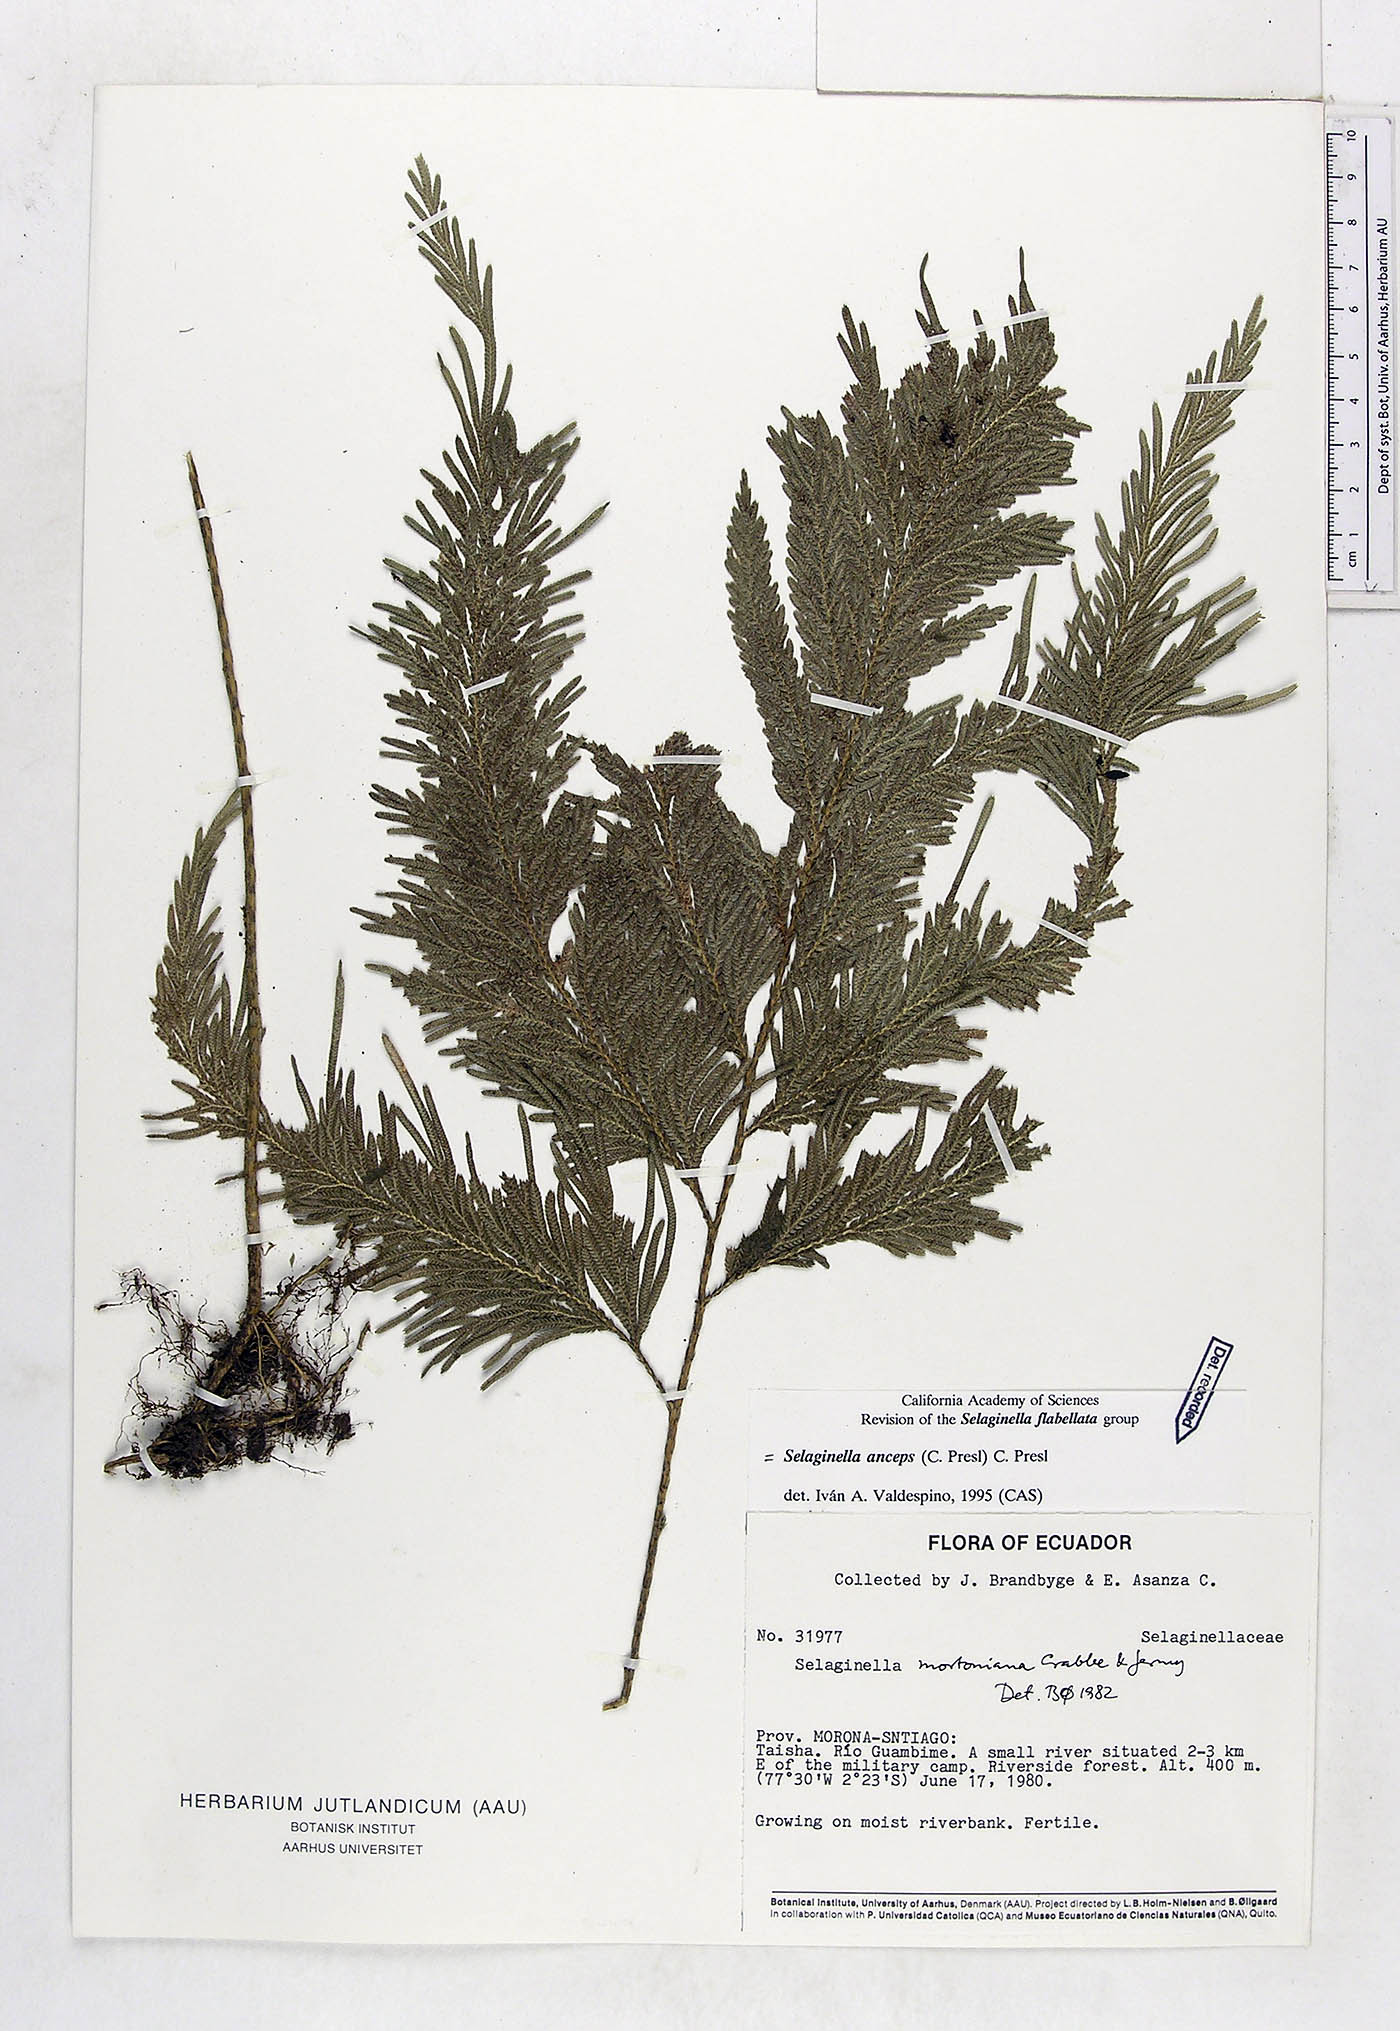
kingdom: Plantae
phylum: Tracheophyta
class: Lycopodiopsida
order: Selaginellales
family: Selaginellaceae
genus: Selaginella
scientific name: Selaginella anceps
